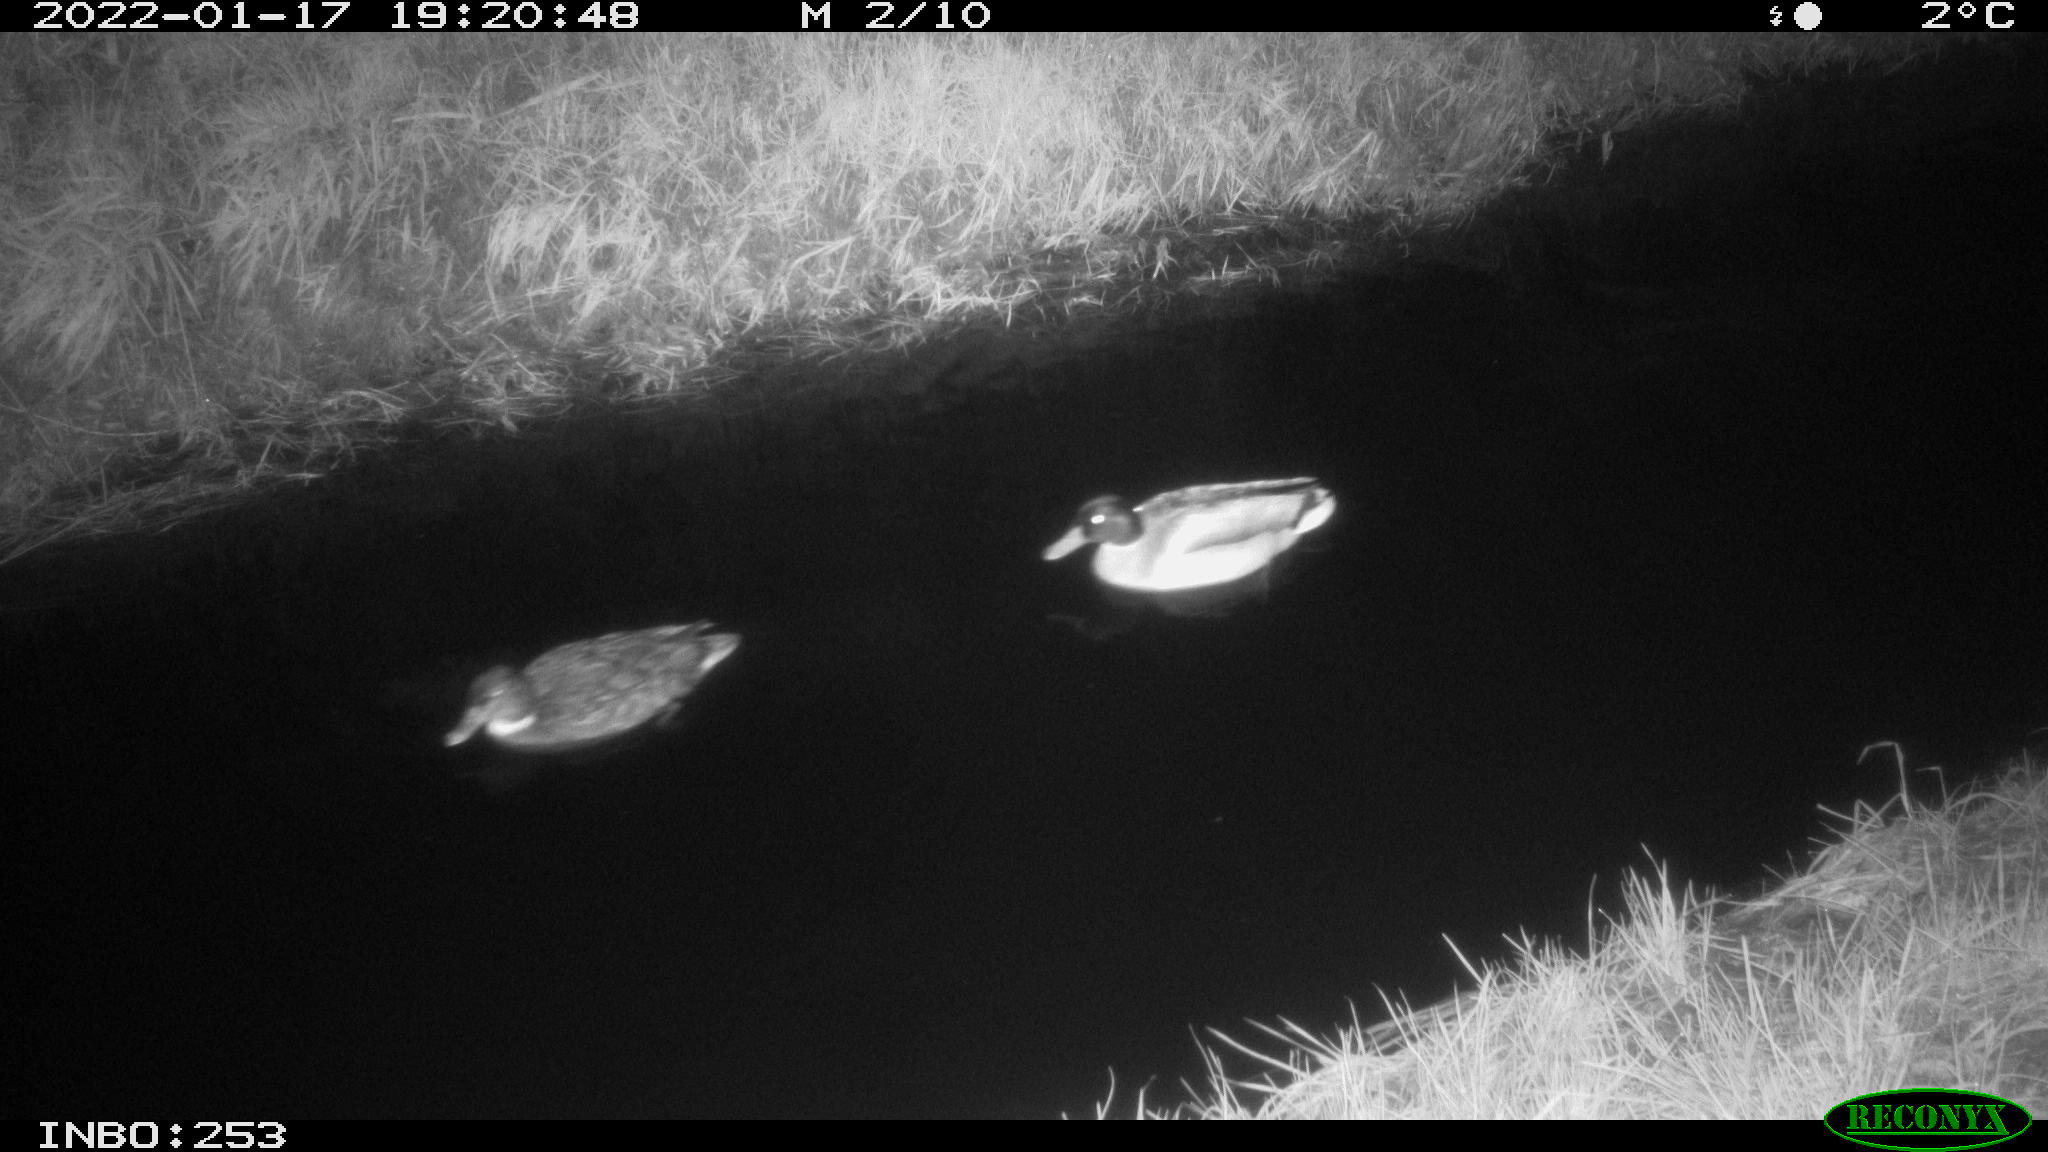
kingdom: Animalia
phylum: Chordata
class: Aves
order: Anseriformes
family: Anatidae
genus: Anas
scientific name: Anas
